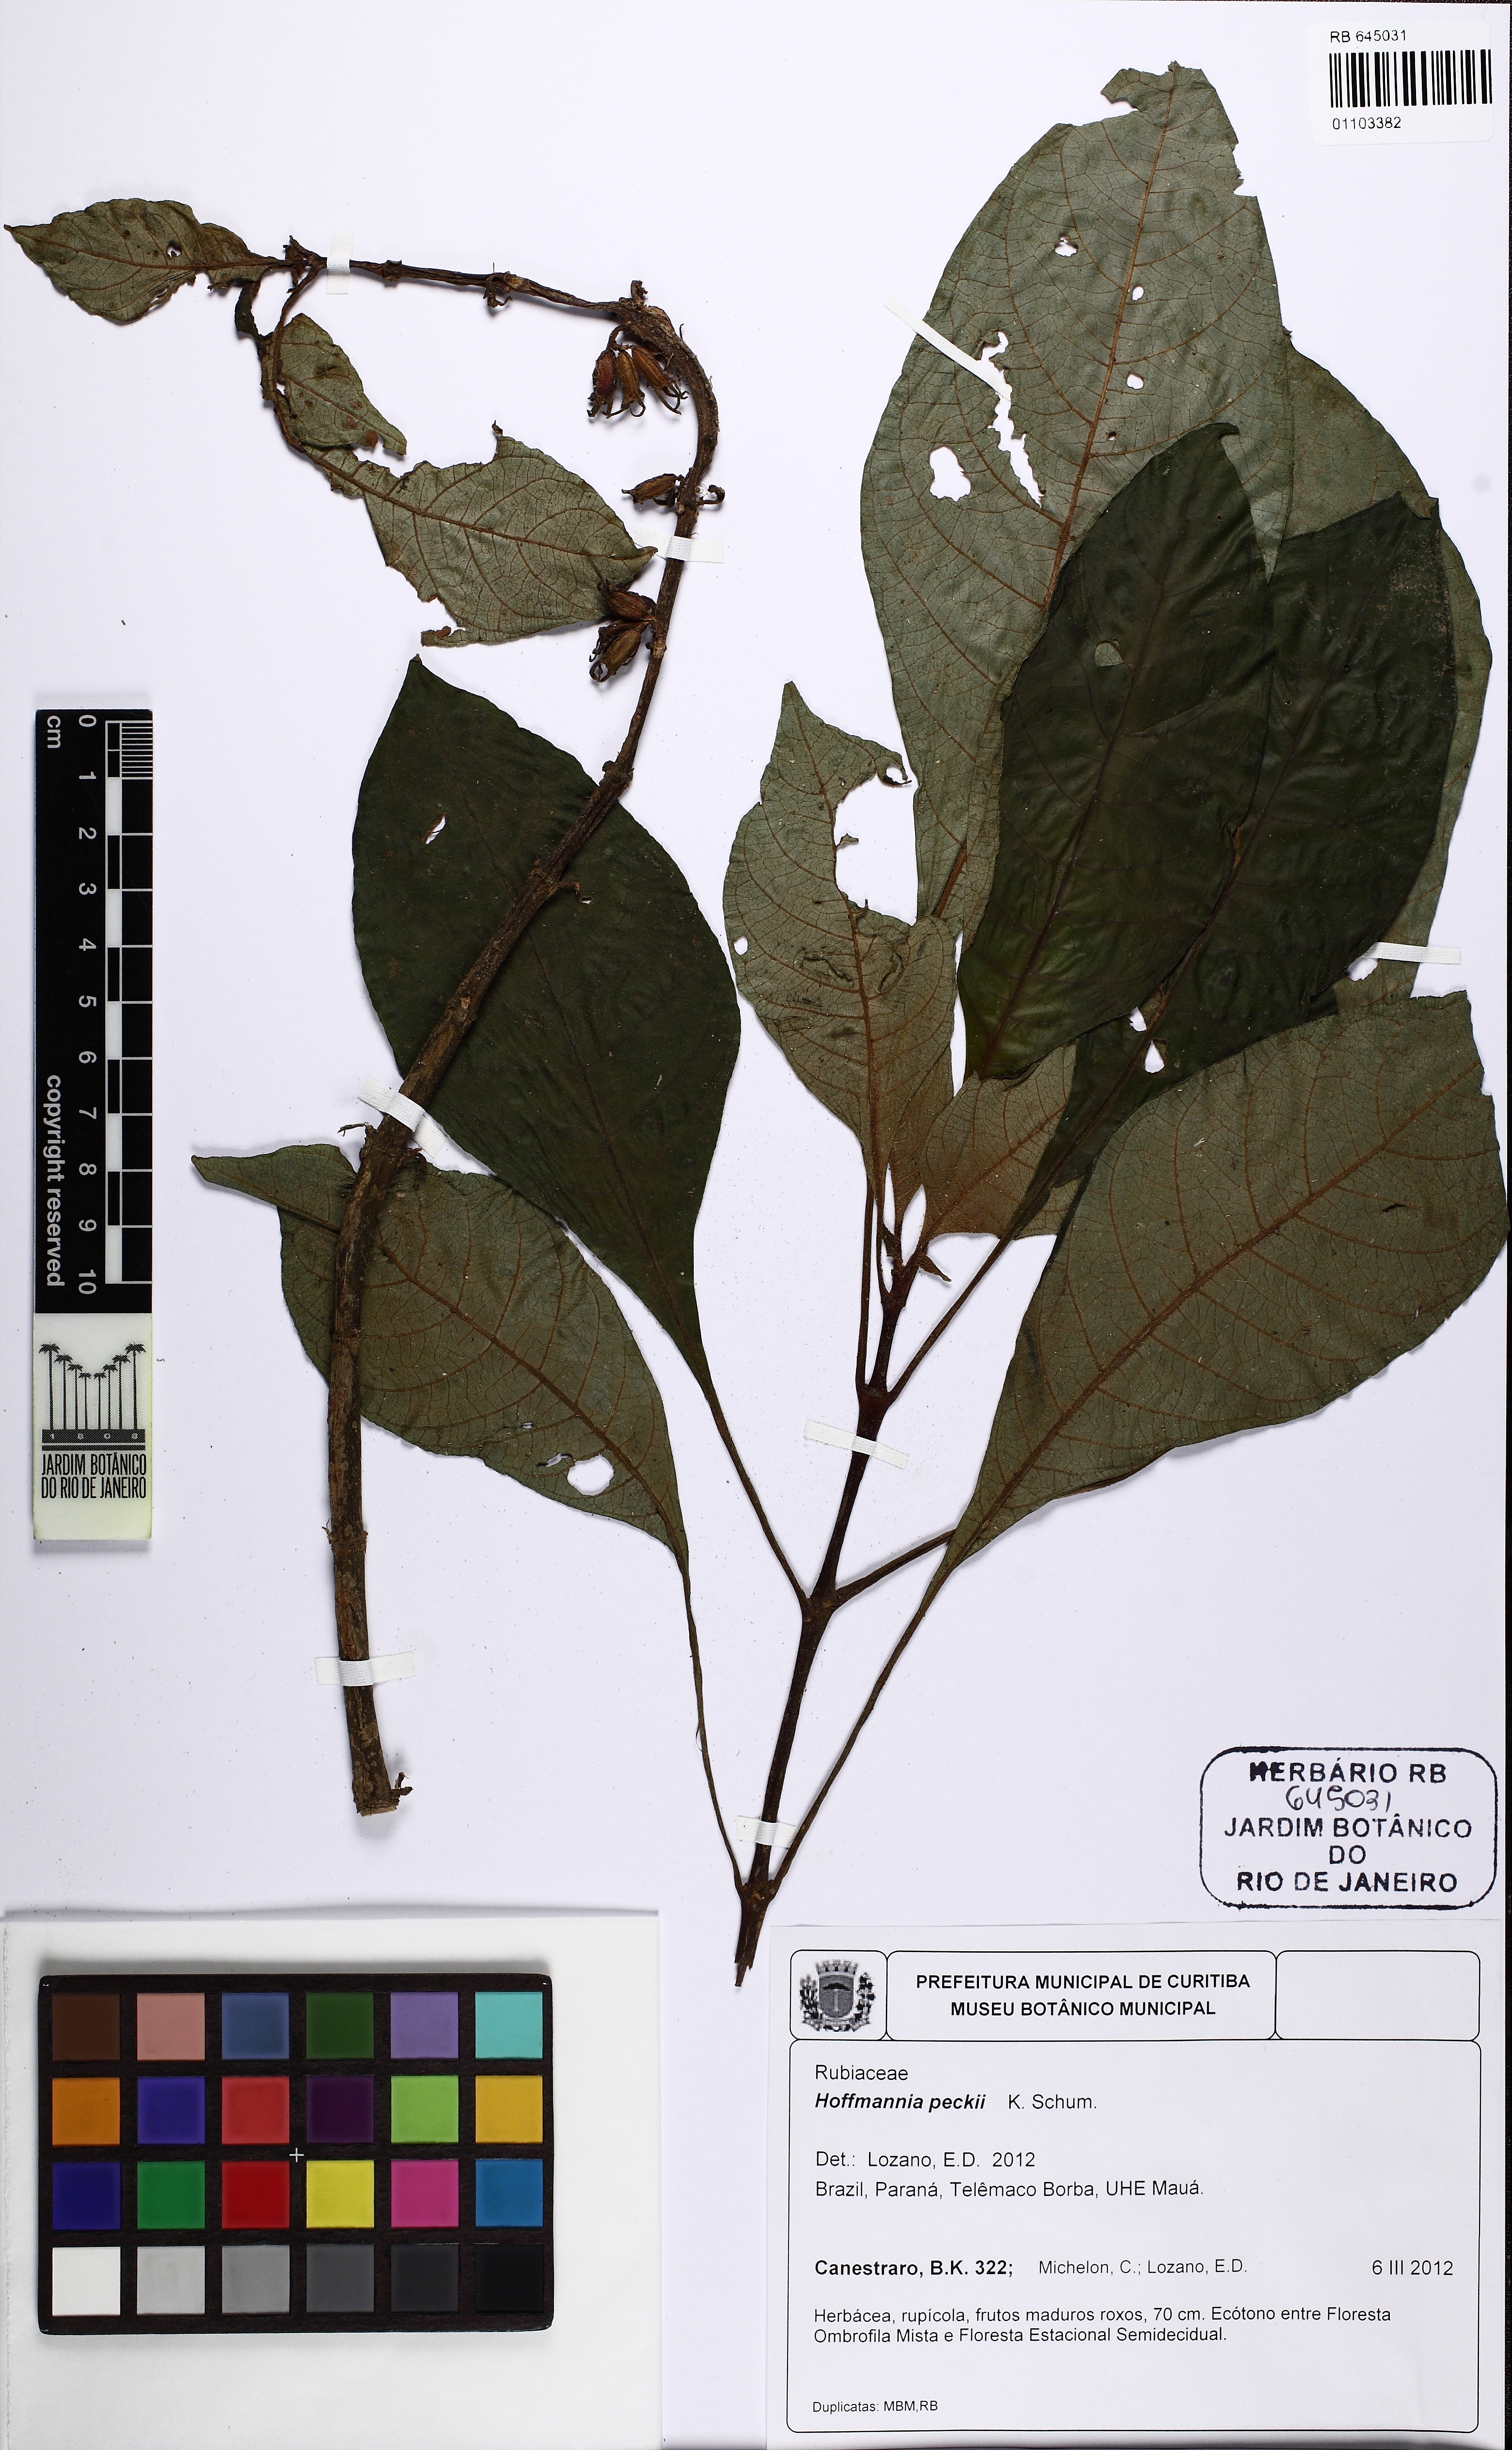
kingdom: Plantae
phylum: Tracheophyta
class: Magnoliopsida
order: Gentianales
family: Rubiaceae
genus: Hoffmannia
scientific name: Hoffmannia peckii
